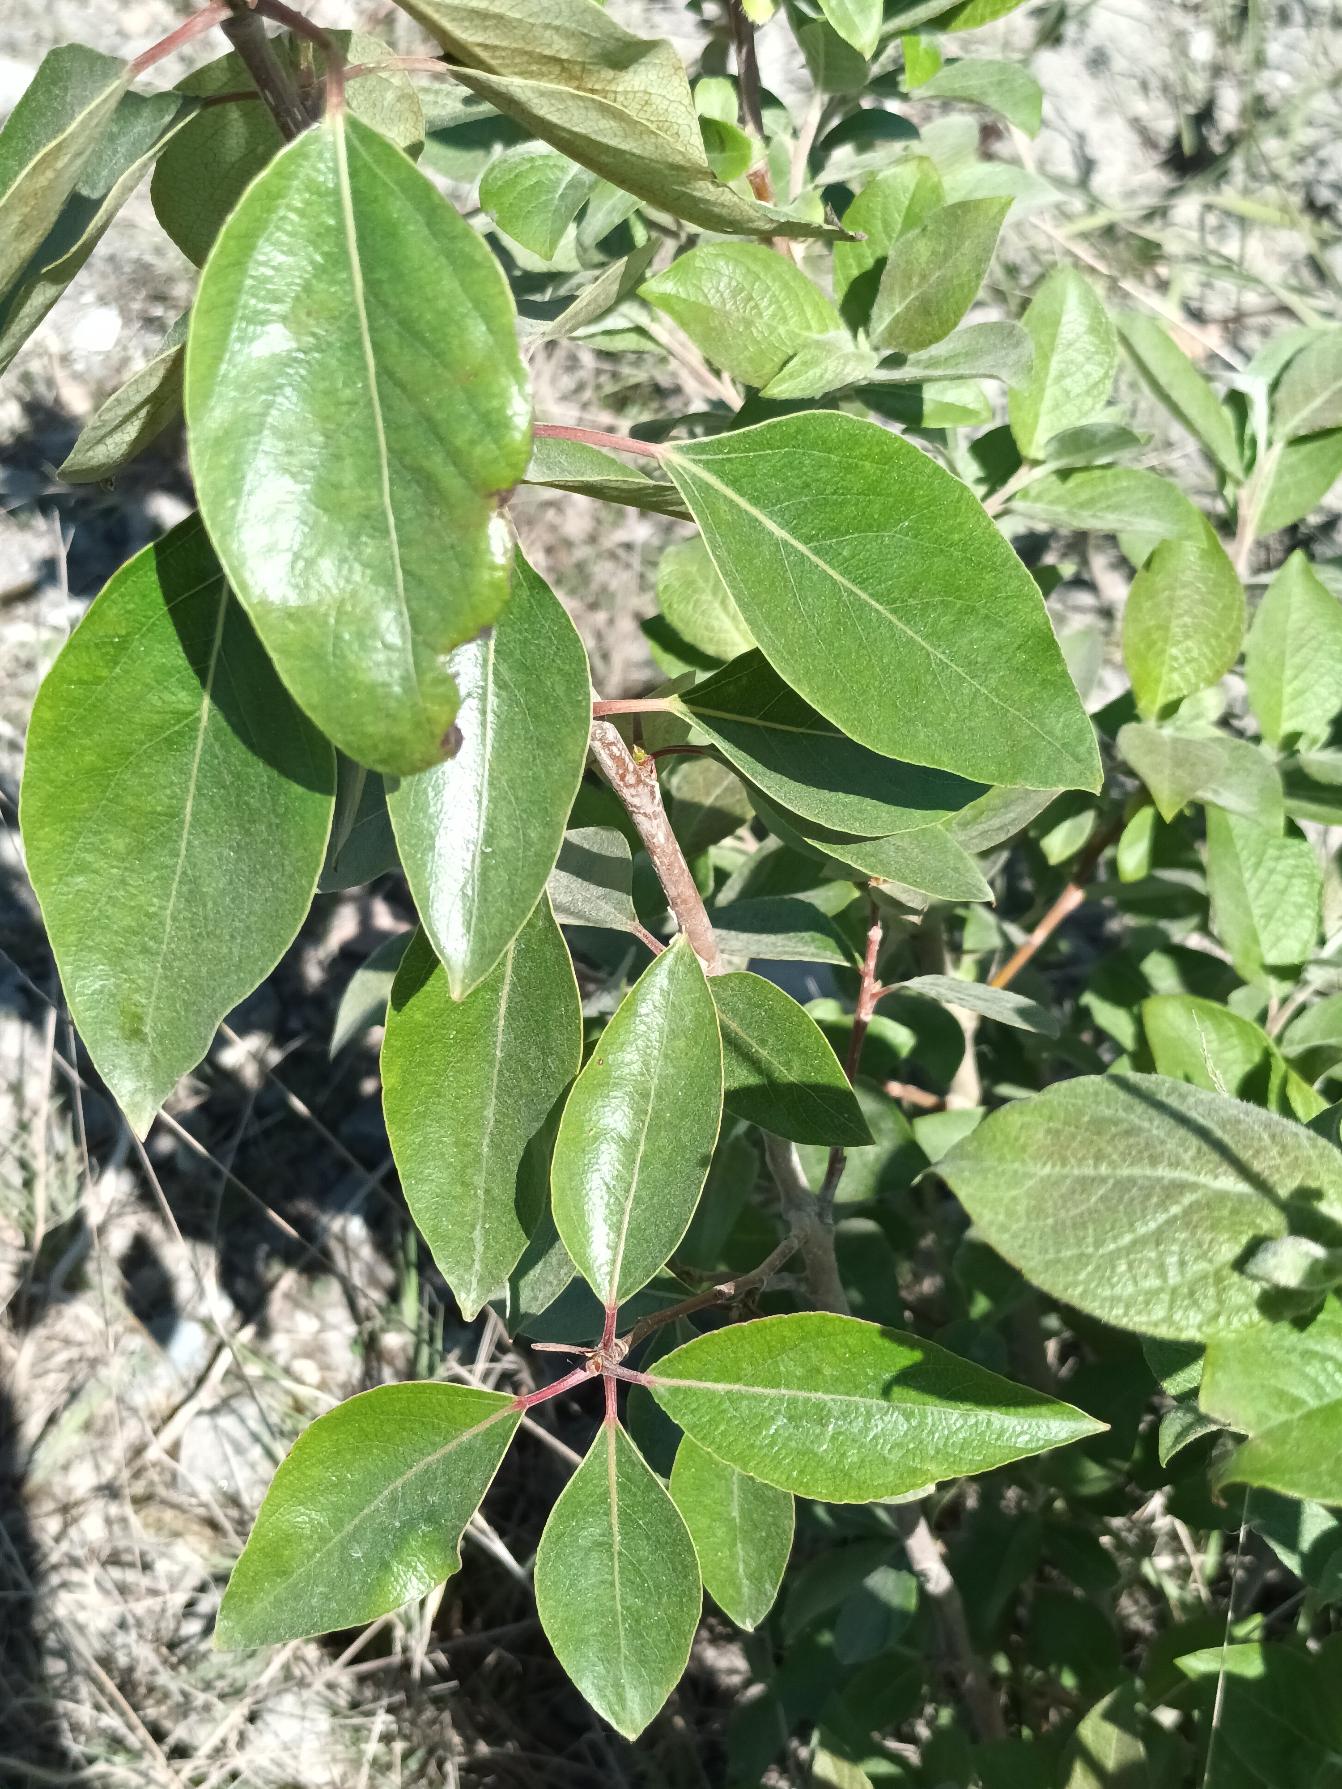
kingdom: Plantae
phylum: Tracheophyta
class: Magnoliopsida
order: Malpighiales
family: Salicaceae
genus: Populus
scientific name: Populus trichocarpa
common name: Vestamerikansk poppel
